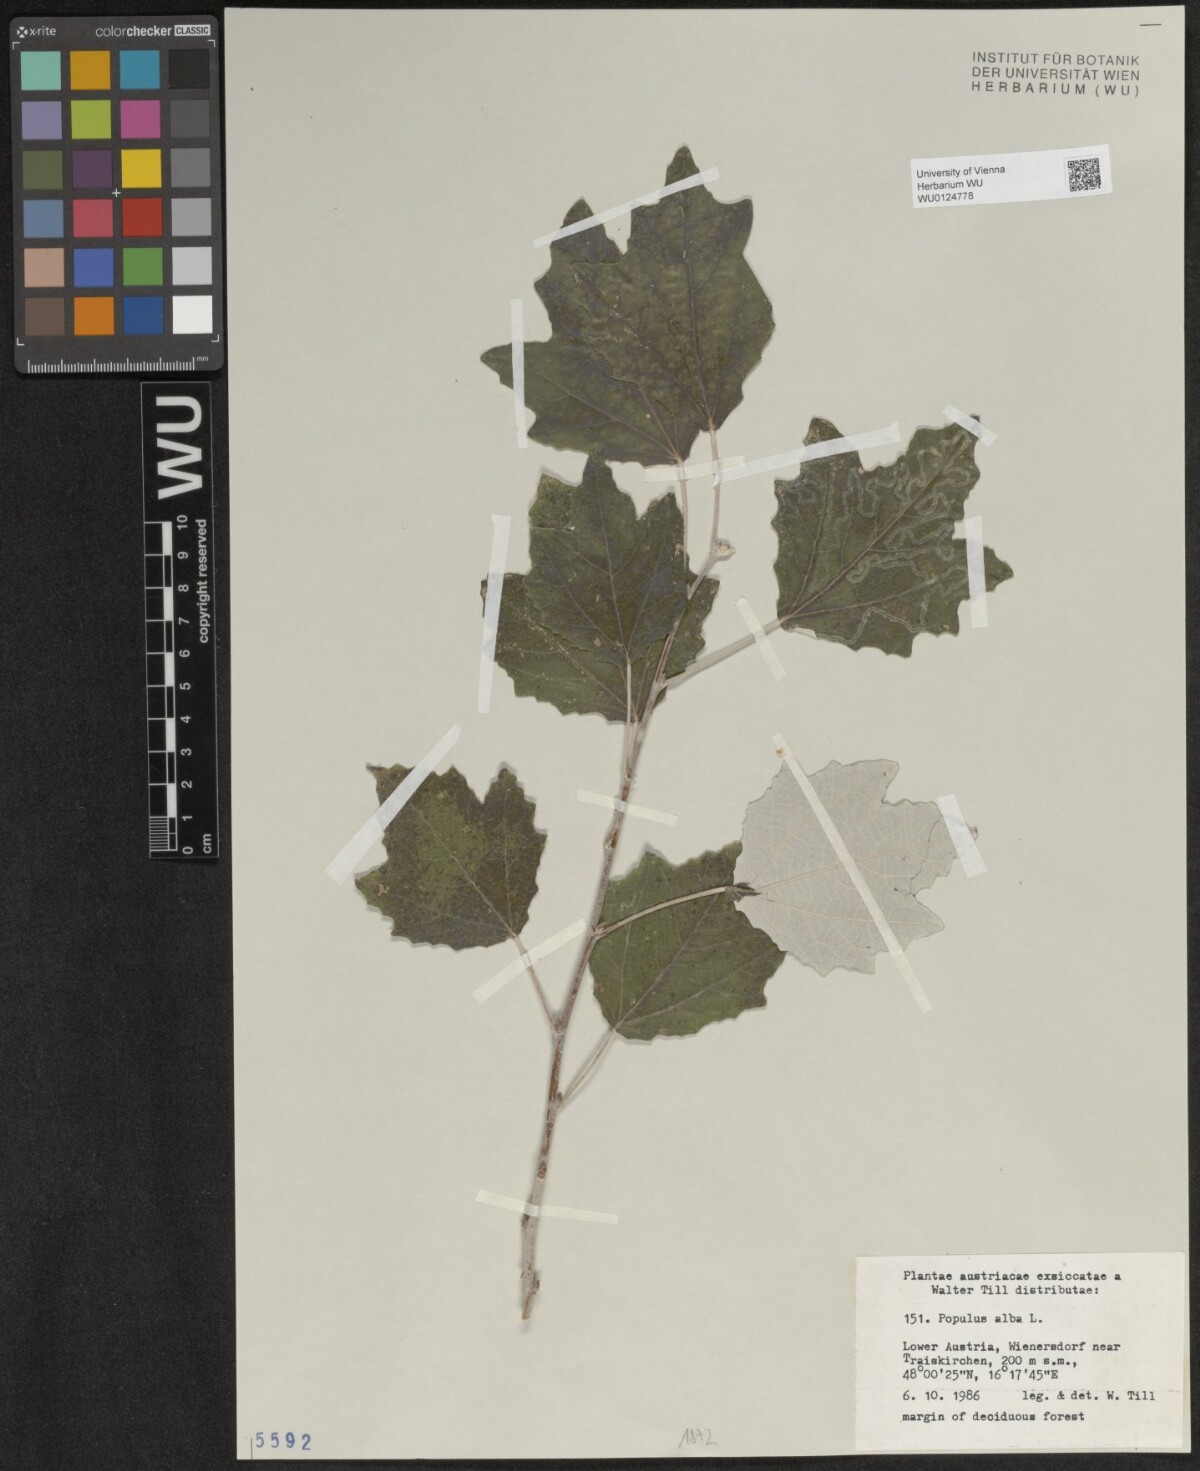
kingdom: Plantae
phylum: Tracheophyta
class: Magnoliopsida
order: Malpighiales
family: Salicaceae
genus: Populus
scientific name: Populus alba
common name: White poplar
